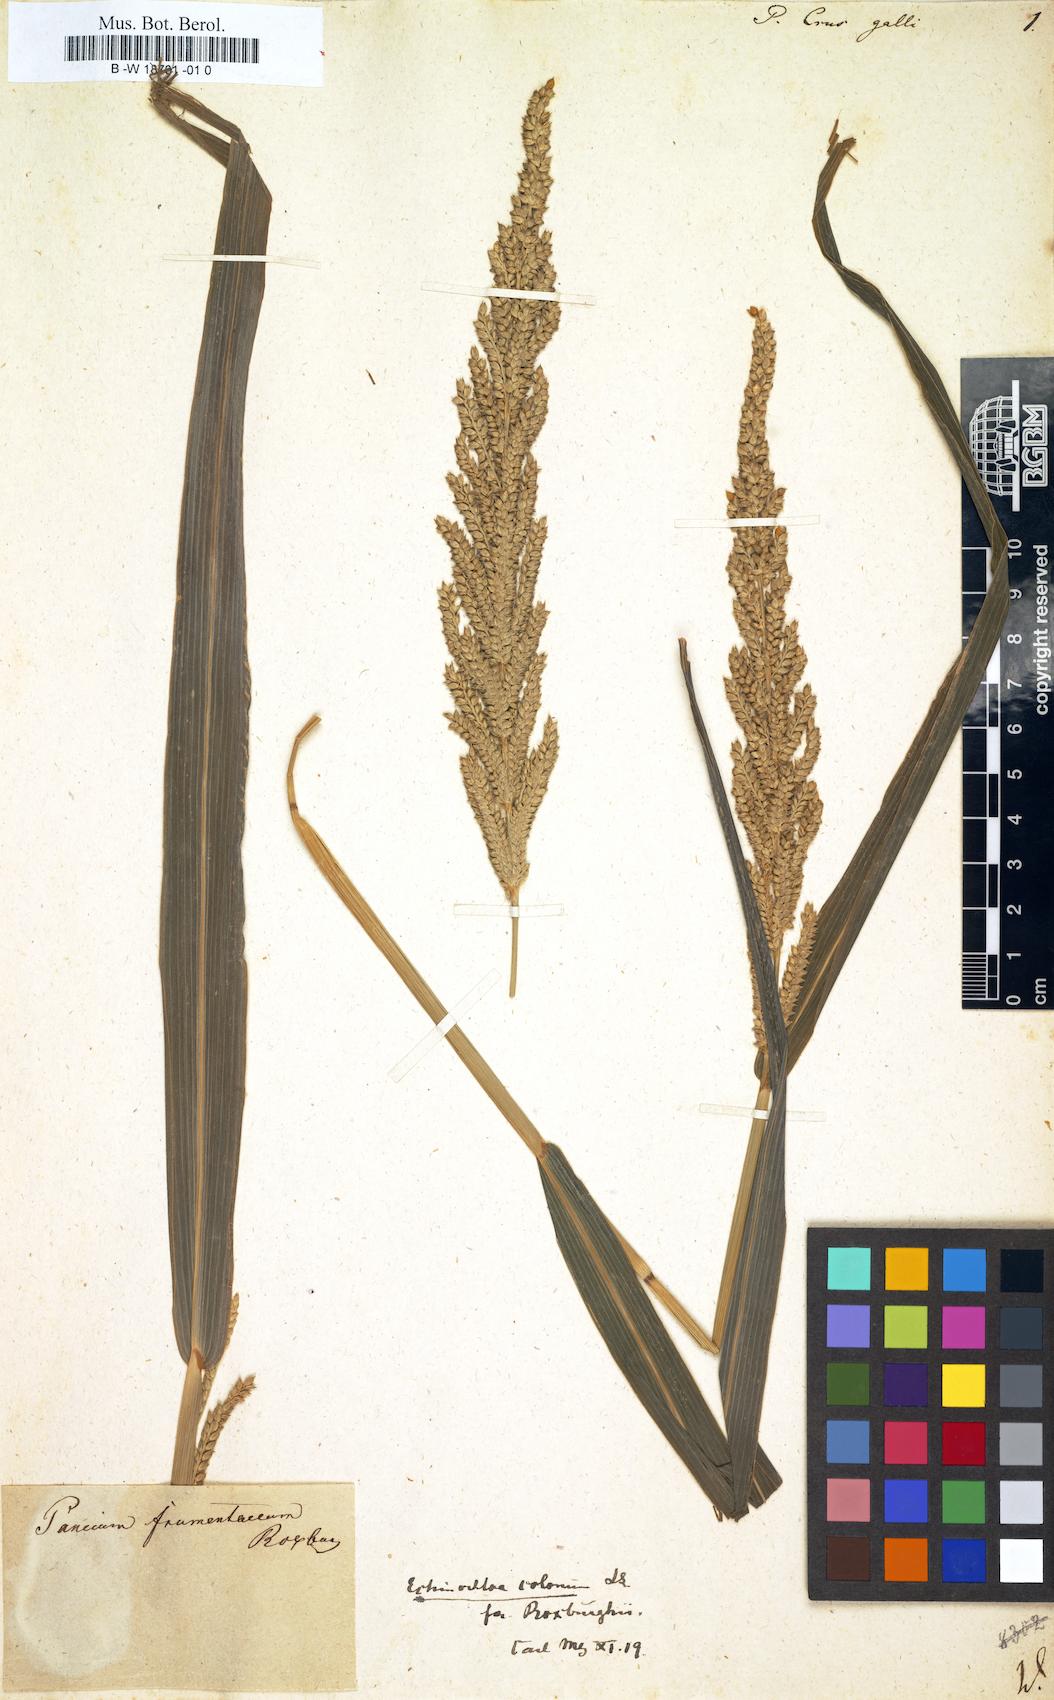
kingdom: Plantae
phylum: Tracheophyta
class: Liliopsida
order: Poales
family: Poaceae
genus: Echinochloa
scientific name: Echinochloa crus-galli
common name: Cockspur
